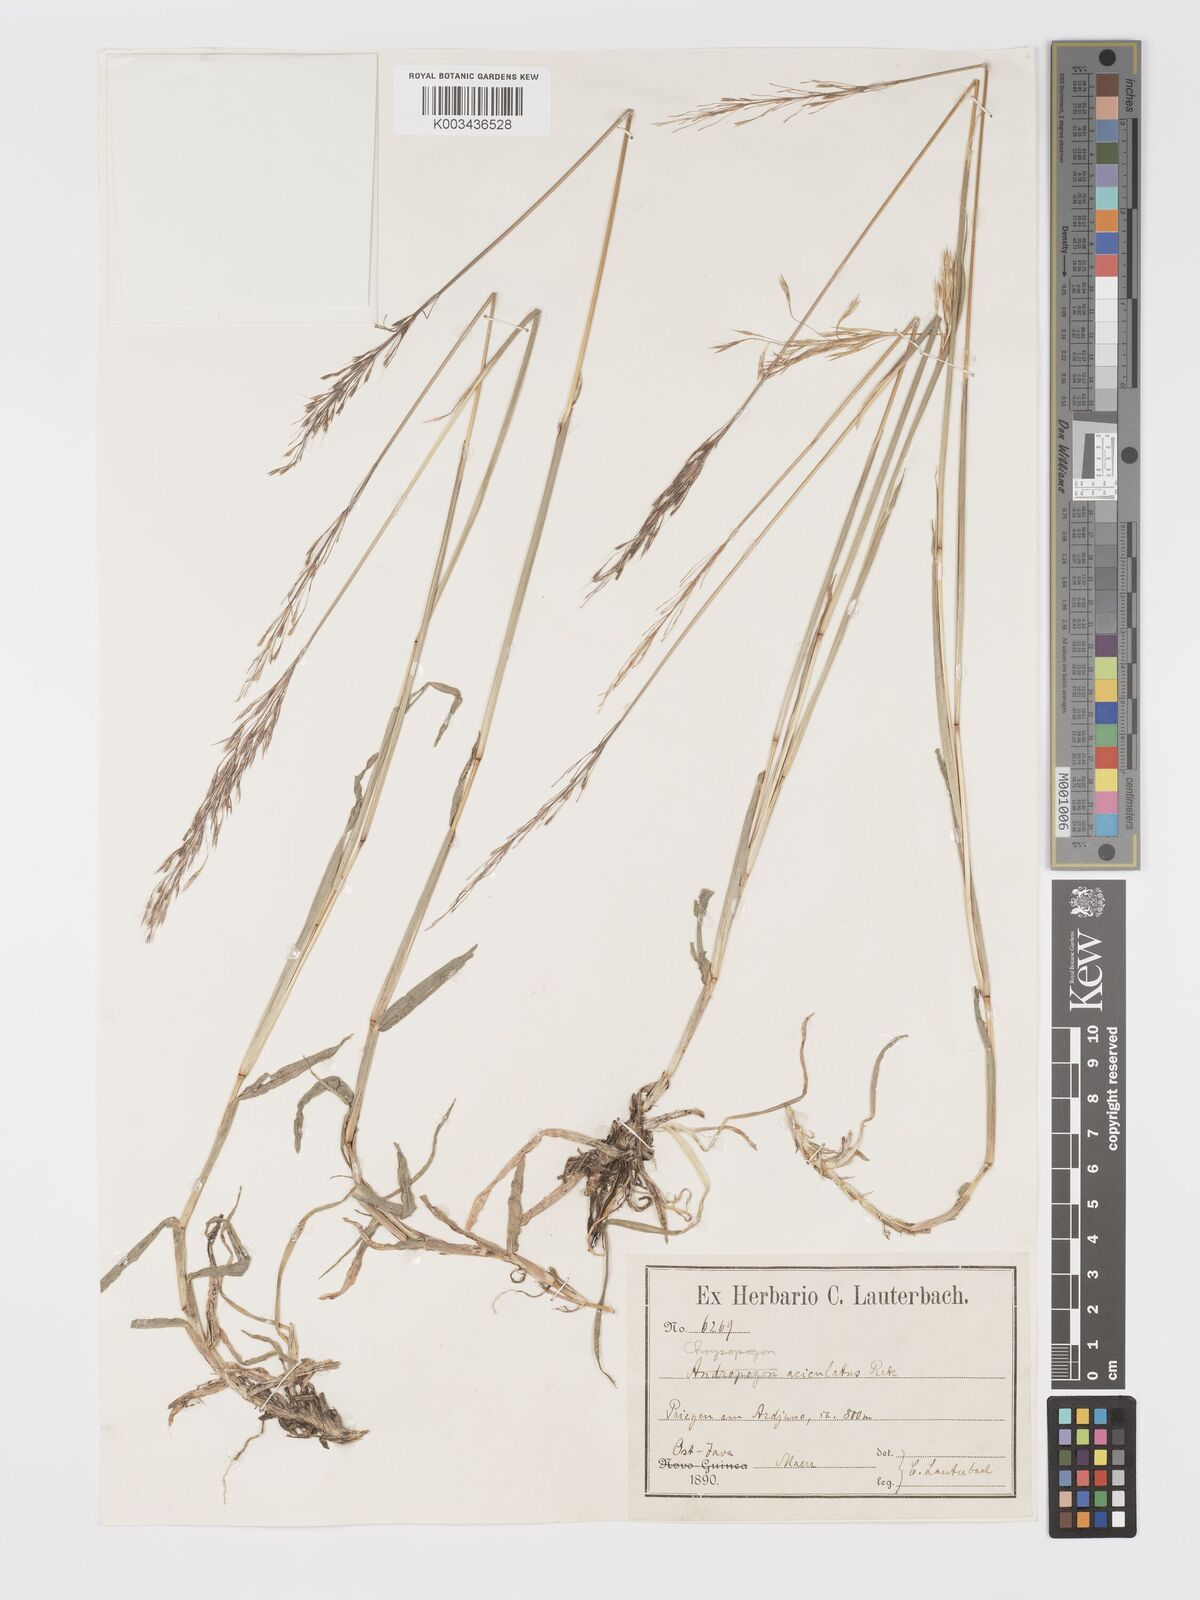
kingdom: Plantae
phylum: Tracheophyta
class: Liliopsida
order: Poales
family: Poaceae
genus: Chrysopogon
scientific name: Chrysopogon aciculatus
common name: Pilipiliula
